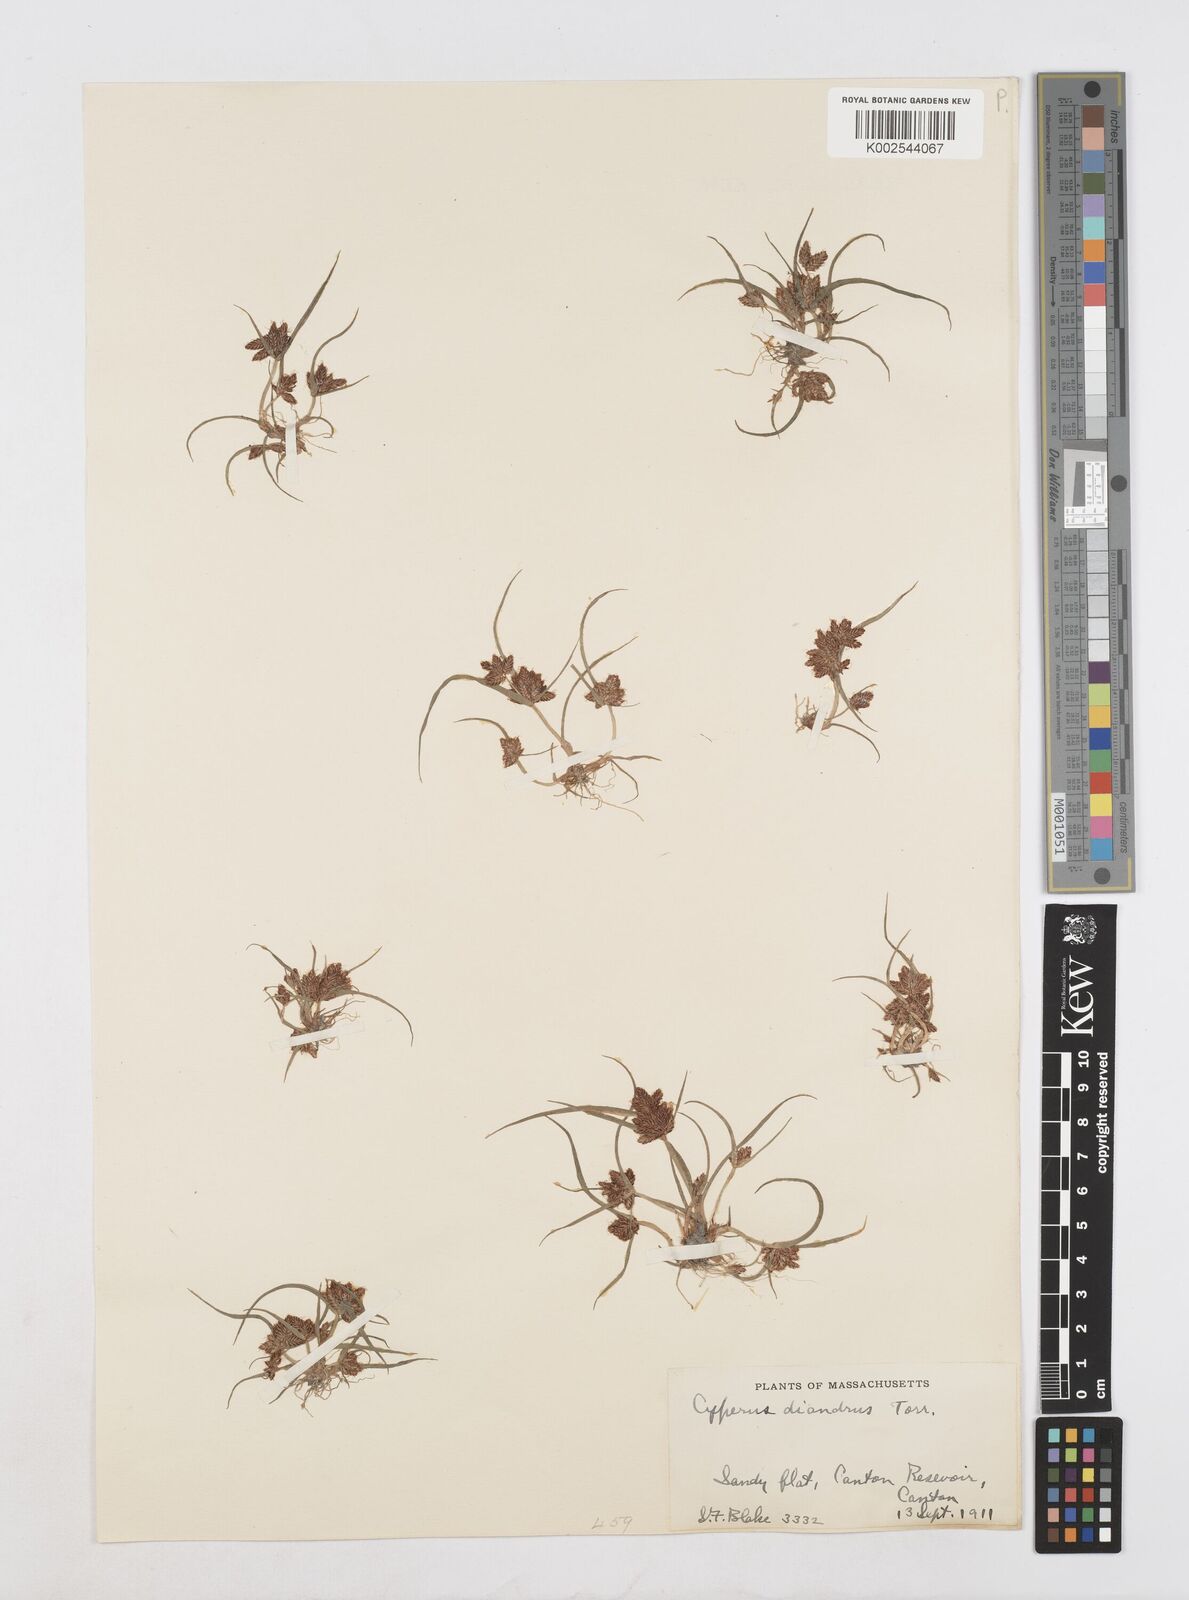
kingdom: Plantae
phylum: Tracheophyta
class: Liliopsida
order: Poales
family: Cyperaceae
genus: Cyperus
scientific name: Cyperus diandrus
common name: Low cyperus
